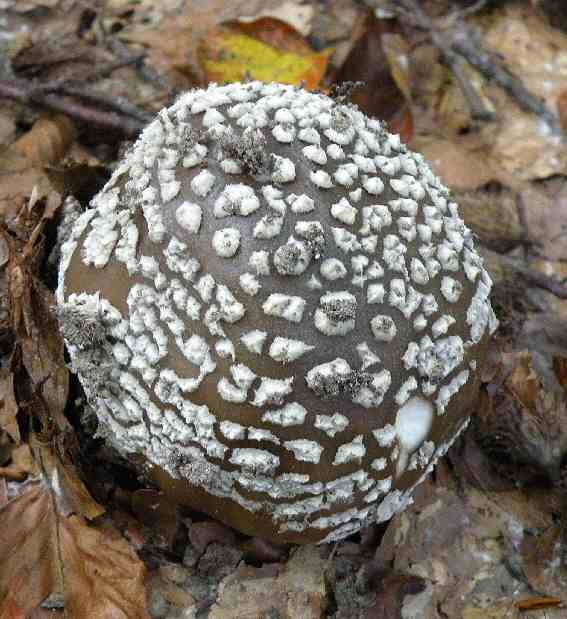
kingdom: Fungi
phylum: Basidiomycota
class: Agaricomycetes
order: Agaricales
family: Amanitaceae
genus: Amanita
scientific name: Amanita pantherina
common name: panter-fluesvamp
